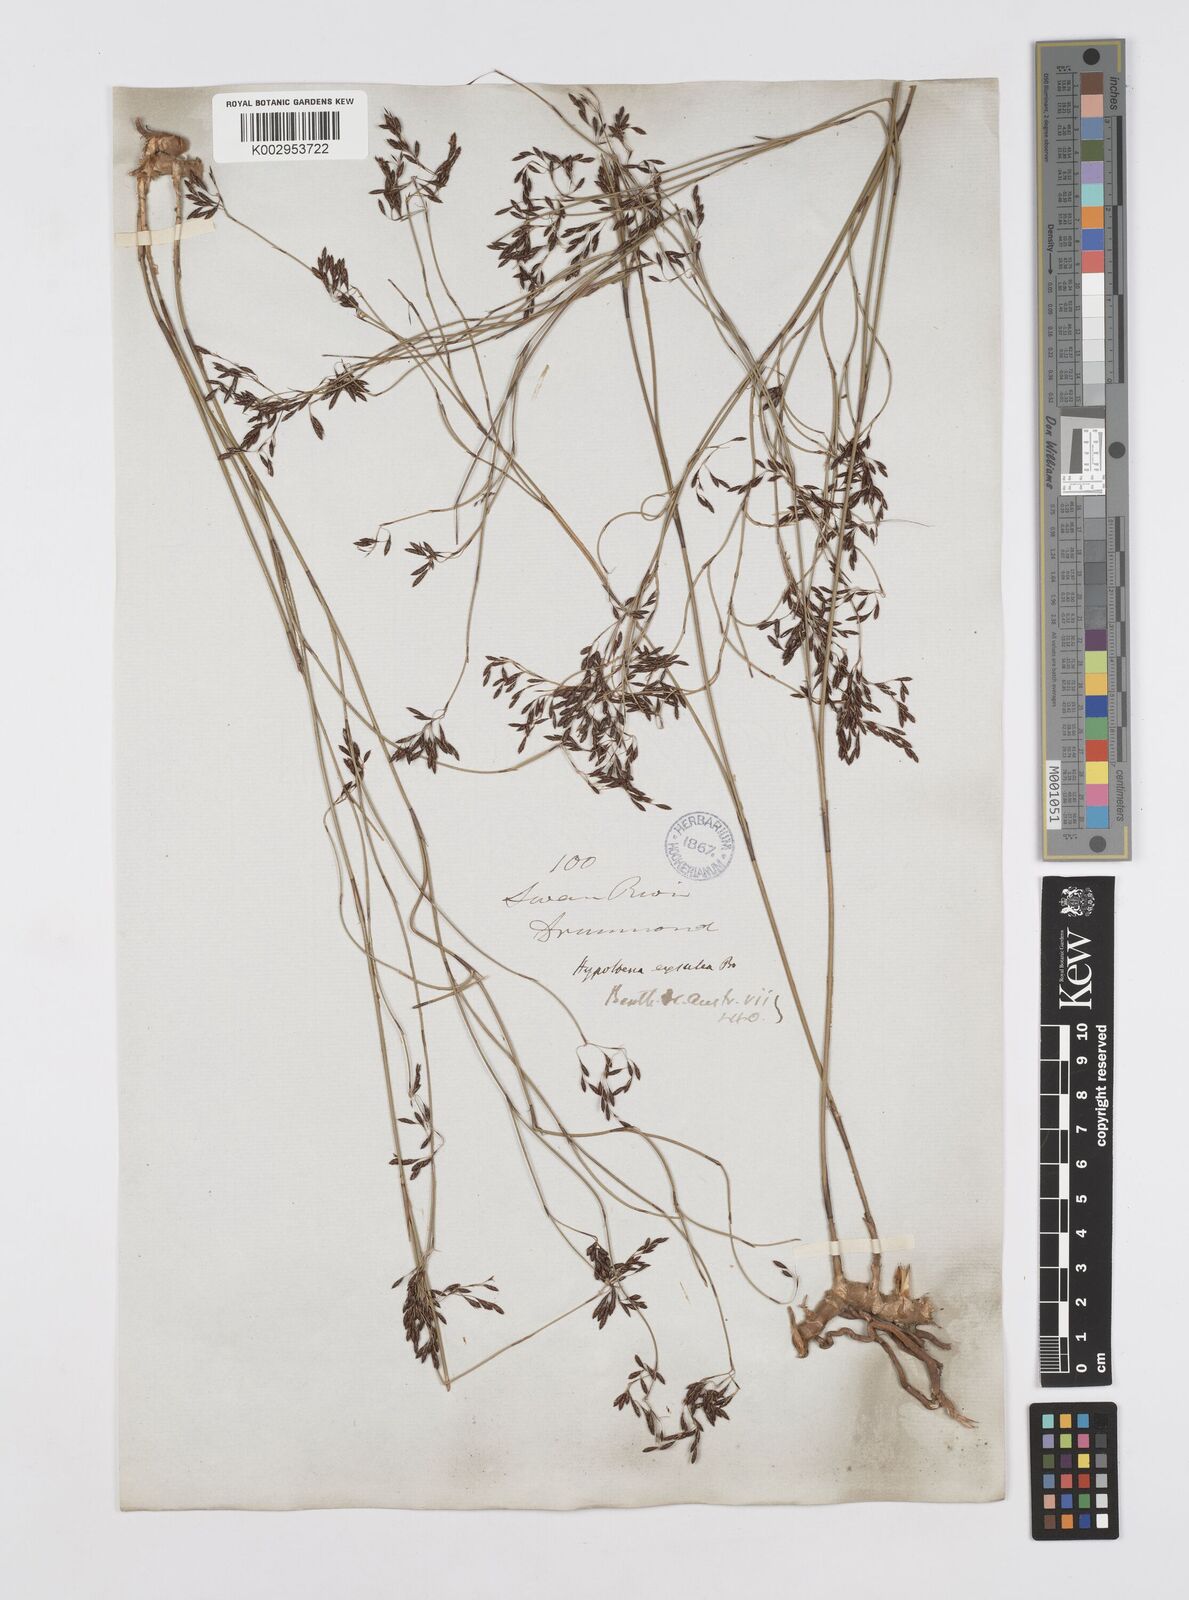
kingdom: Plantae
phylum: Tracheophyta
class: Liliopsida
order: Poales
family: Restionaceae
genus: Hypolaena
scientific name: Hypolaena exsulca
